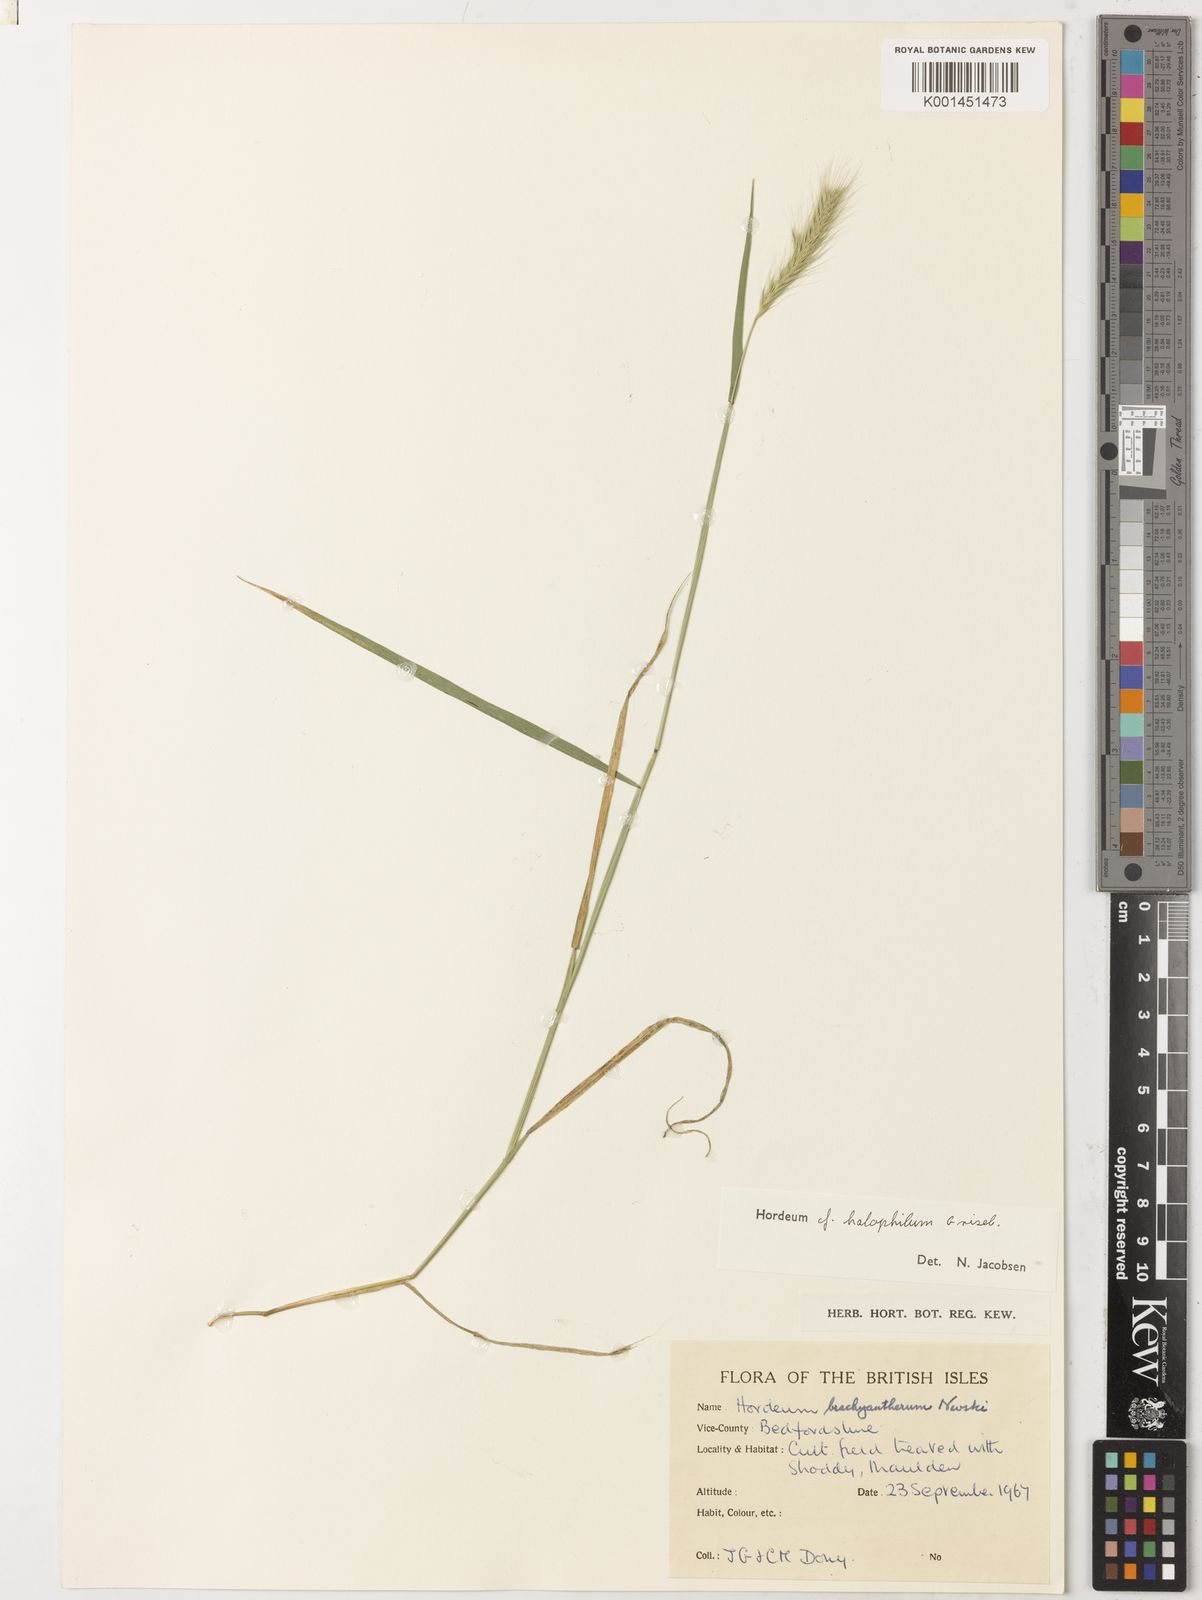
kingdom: Plantae
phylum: Tracheophyta
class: Liliopsida
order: Poales
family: Poaceae
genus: Hordeum
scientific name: Hordeum pubiflorum
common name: Antarctic barley
